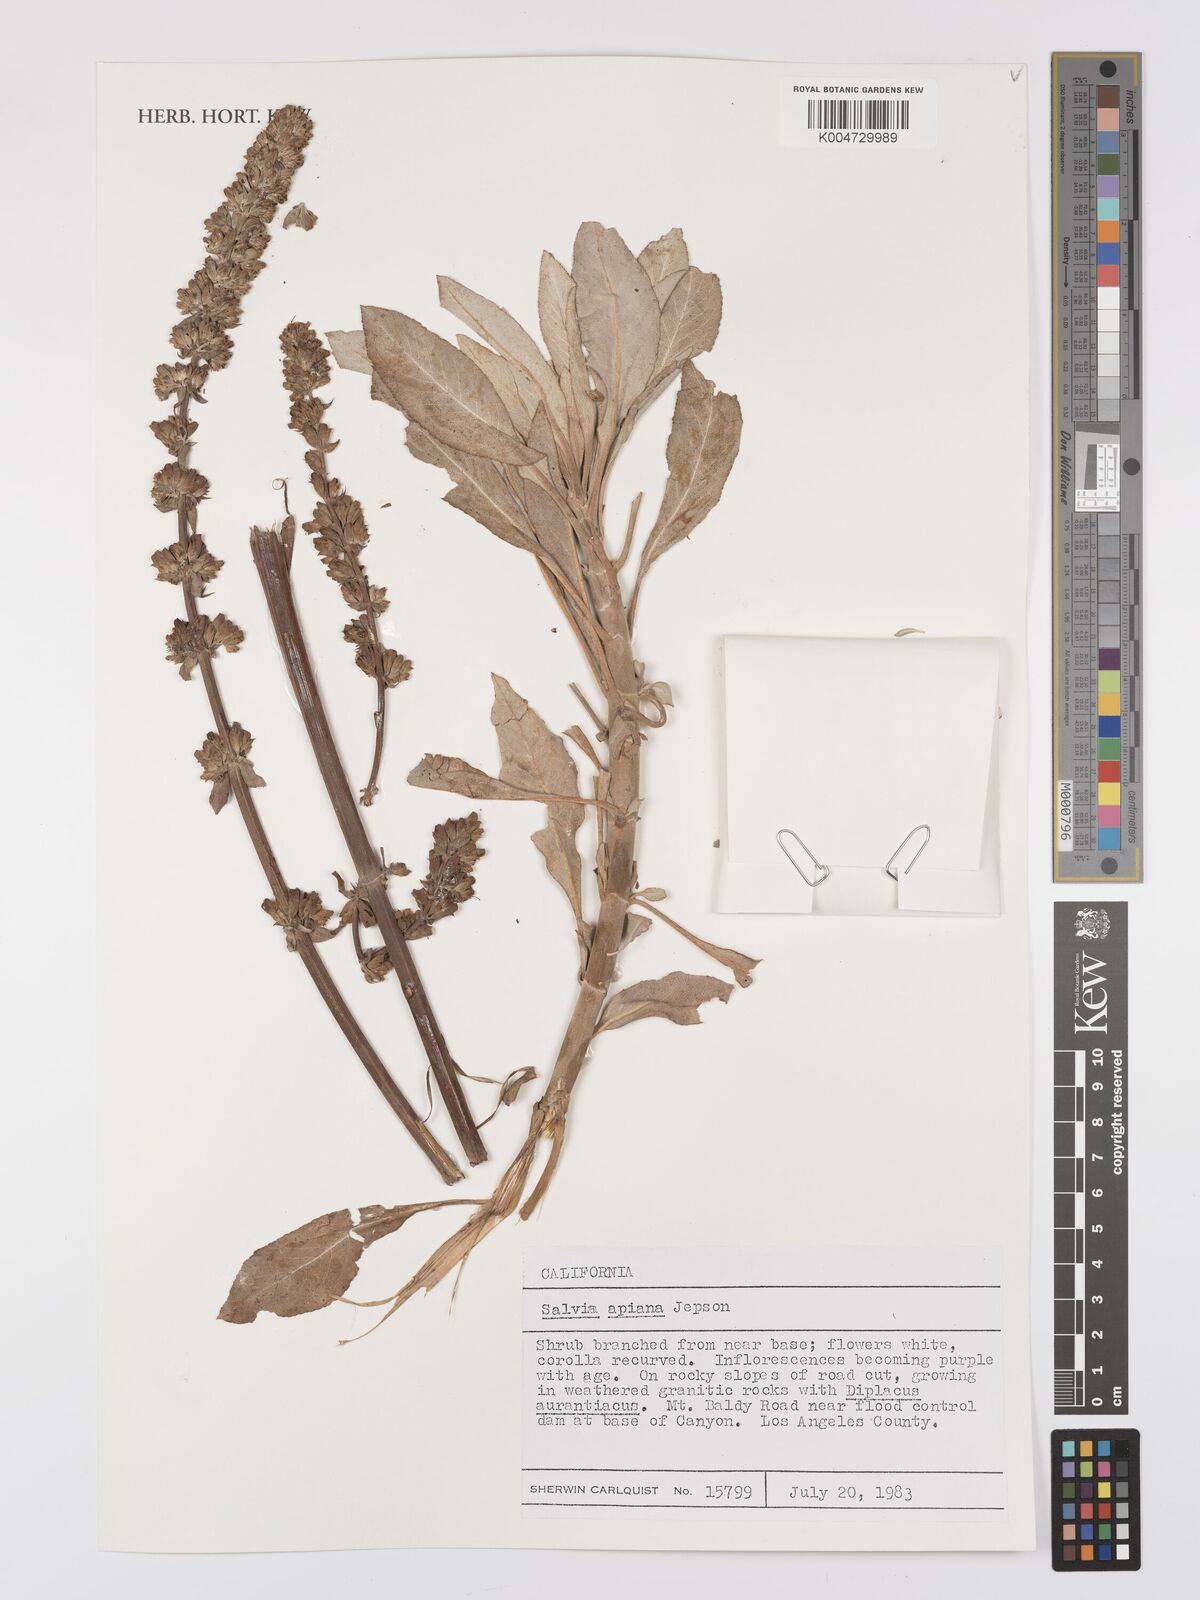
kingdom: Plantae
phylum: Tracheophyta
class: Magnoliopsida
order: Lamiales
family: Lamiaceae
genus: Salvia
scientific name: Salvia apiana
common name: White sage
